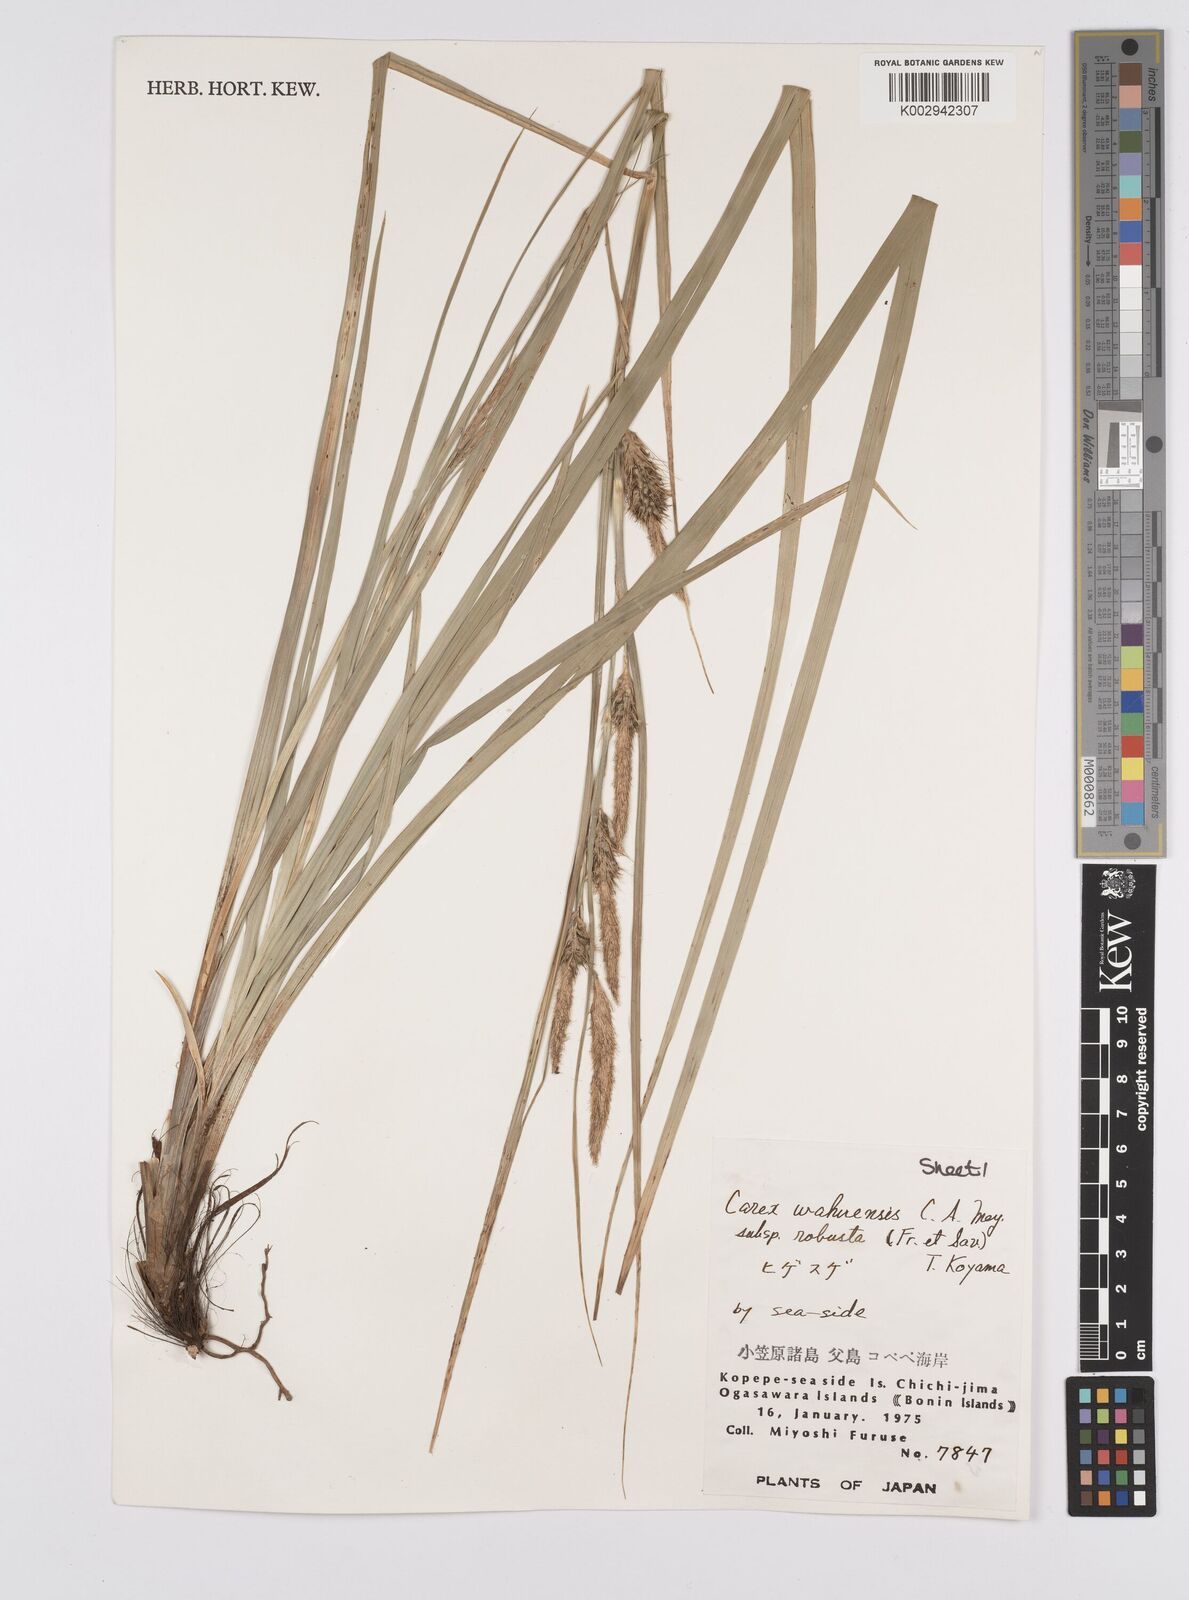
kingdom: Plantae
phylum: Tracheophyta
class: Liliopsida
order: Poales
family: Cyperaceae
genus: Carex
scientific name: Carex wahuensis
